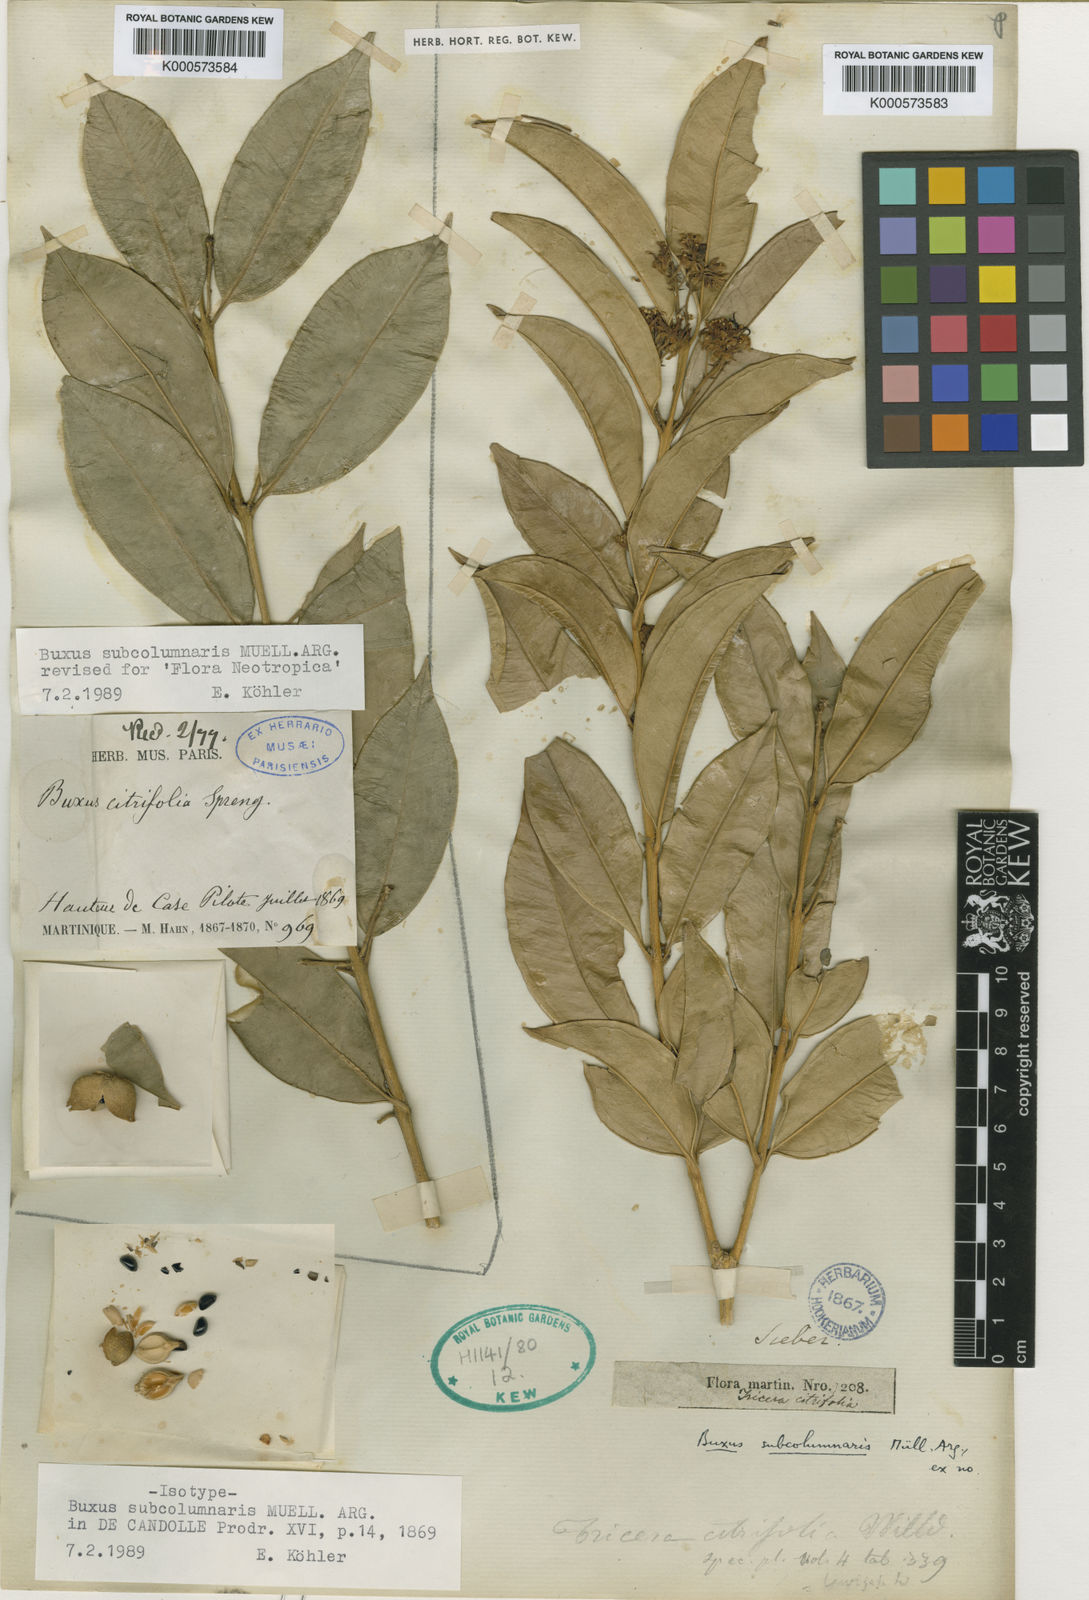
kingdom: Plantae
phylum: Tracheophyta
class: Magnoliopsida
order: Buxales
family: Buxaceae
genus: Buxus
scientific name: Buxus
